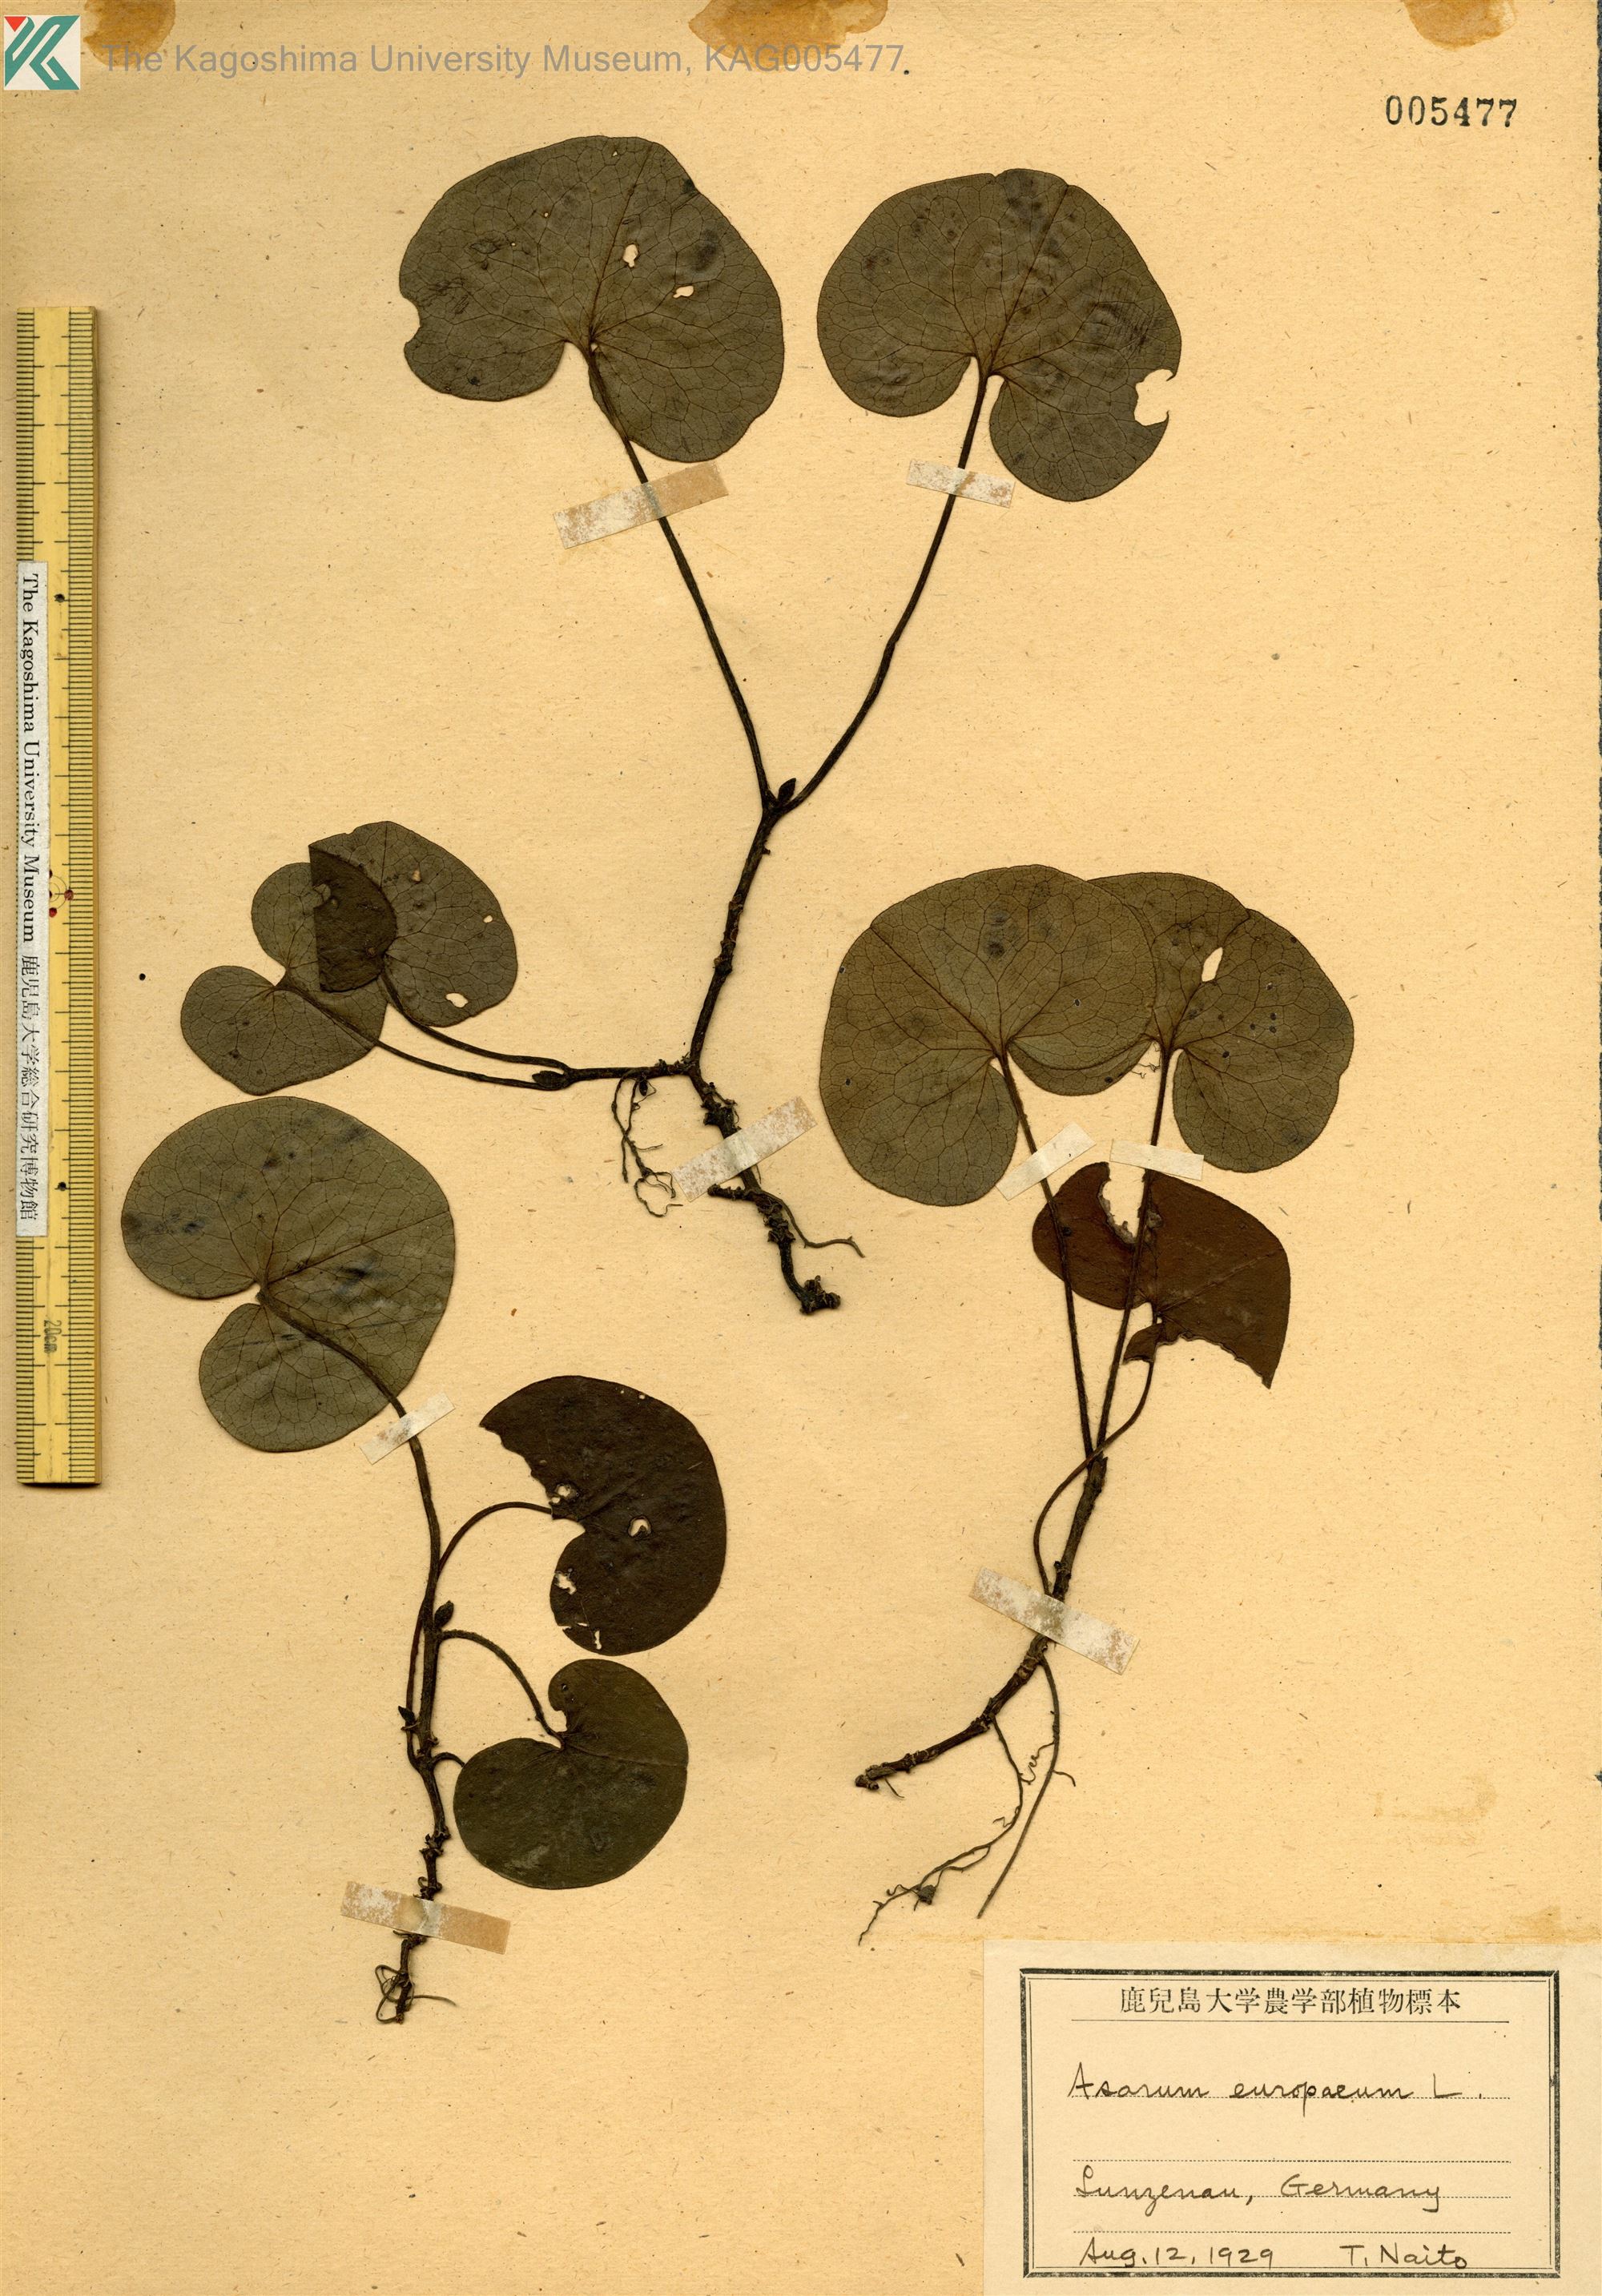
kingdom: Plantae
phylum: Tracheophyta
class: Magnoliopsida
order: Piperales
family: Aristolochiaceae
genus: Asarum
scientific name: Asarum europaeum
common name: Asarabacca
